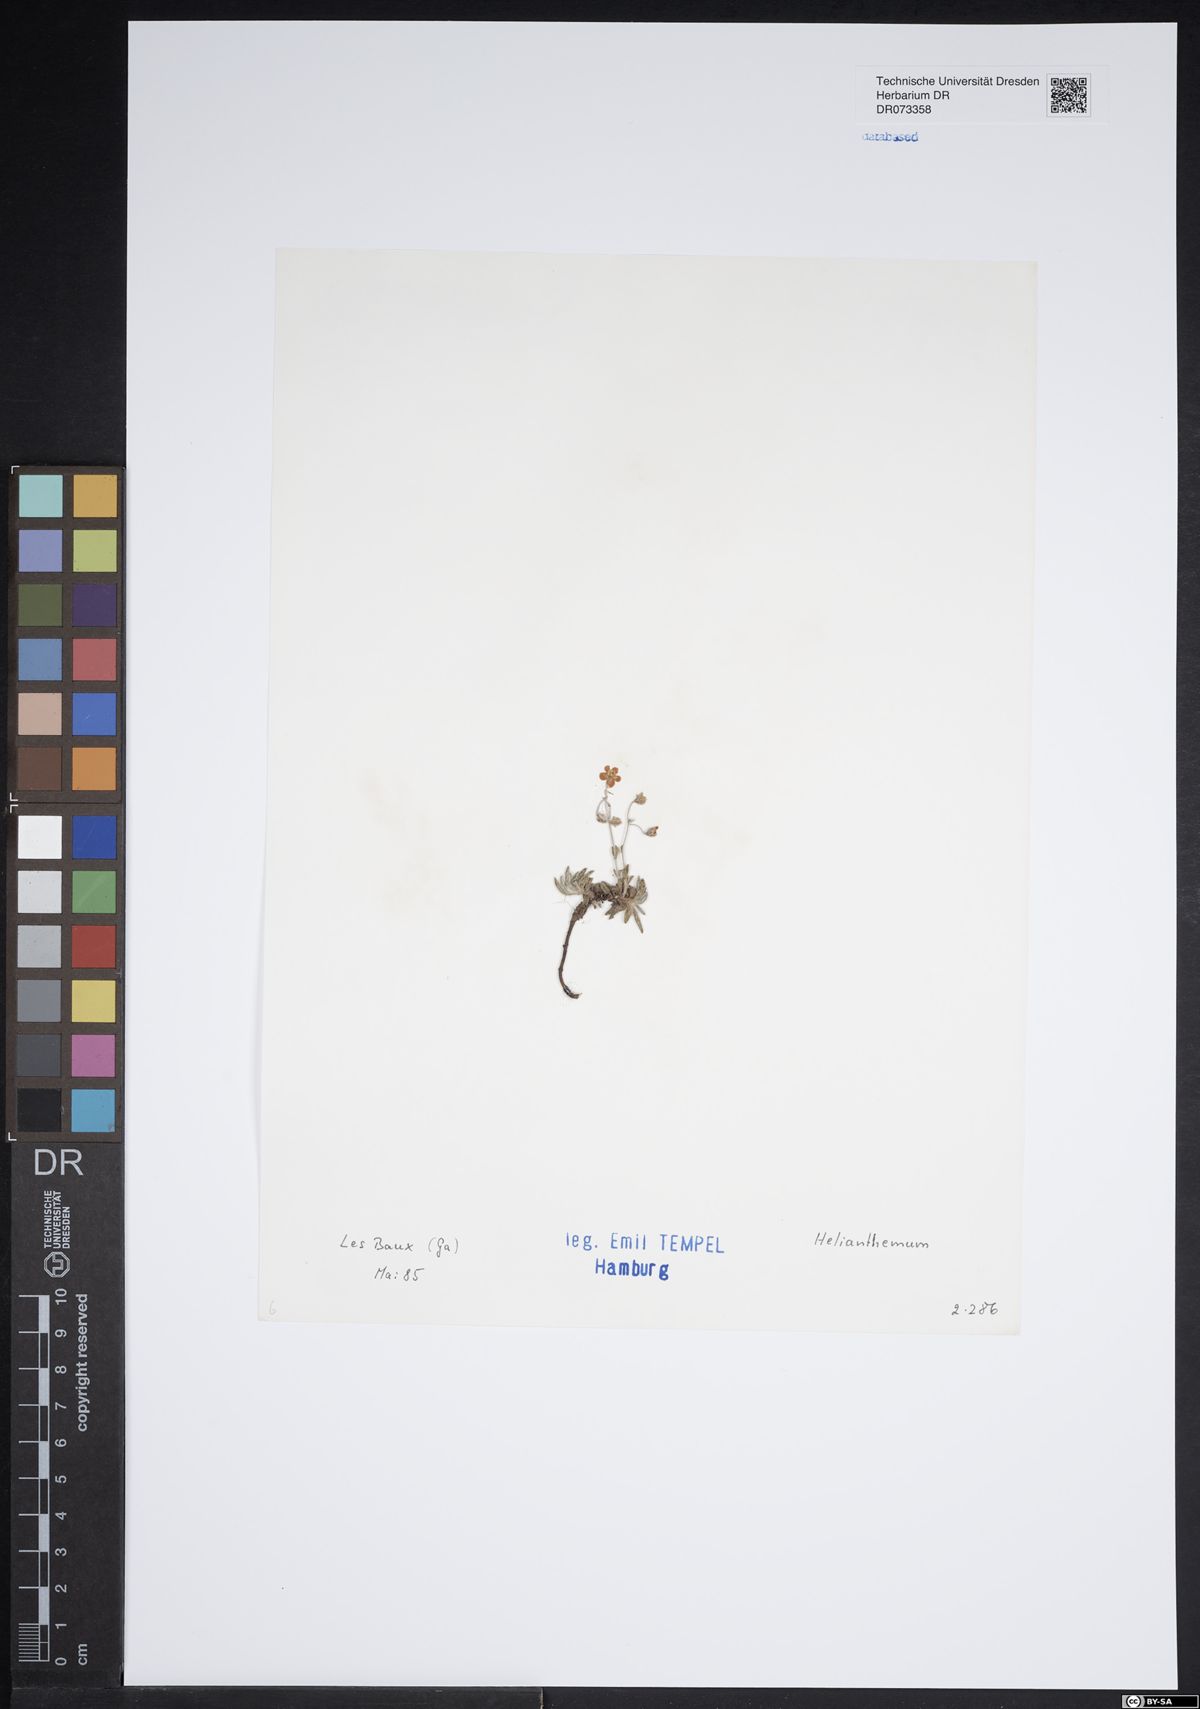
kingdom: Plantae
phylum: Tracheophyta
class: Magnoliopsida
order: Malvales
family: Cistaceae
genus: Helianthemum
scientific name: Helianthemum
